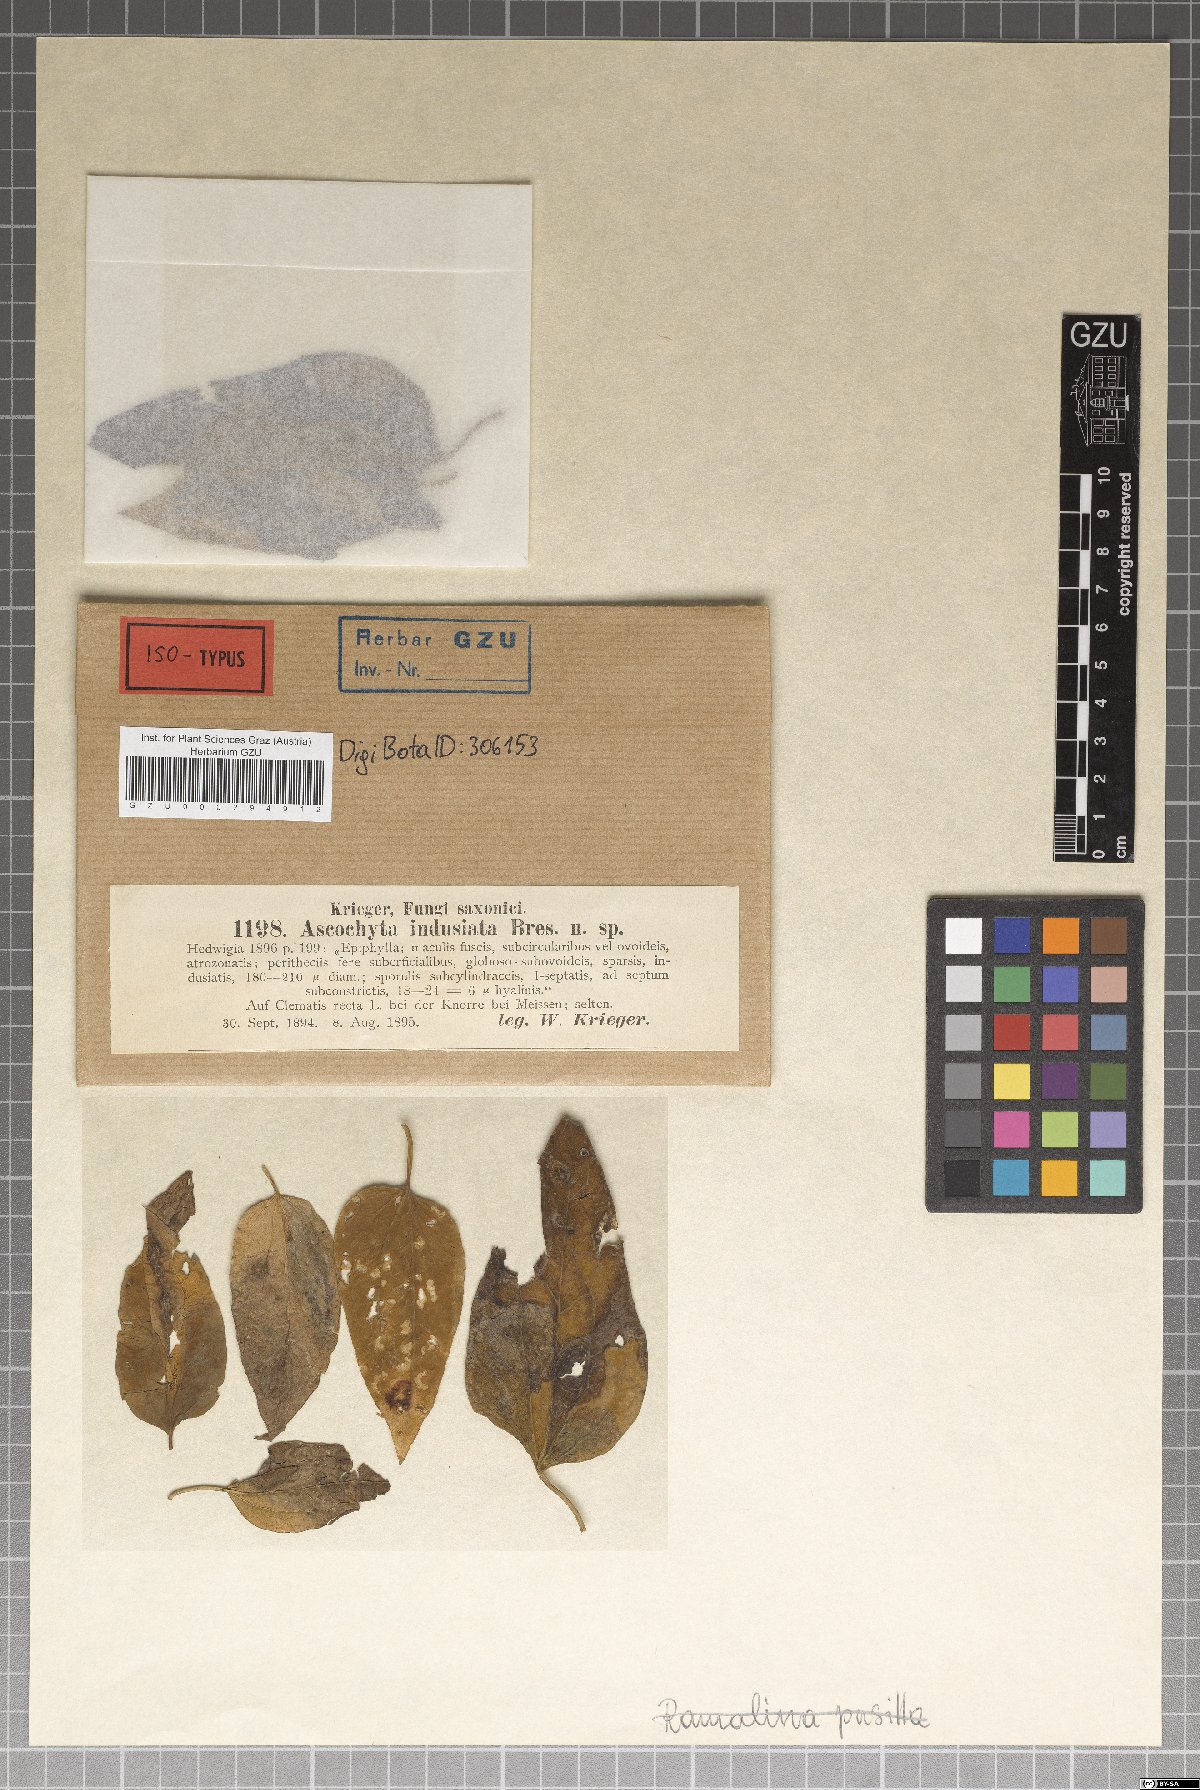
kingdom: Fungi
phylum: Ascomycota
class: Dothideomycetes
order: Pleosporales
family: Didymellaceae
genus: Ascochyta
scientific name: Ascochyta indusiata
